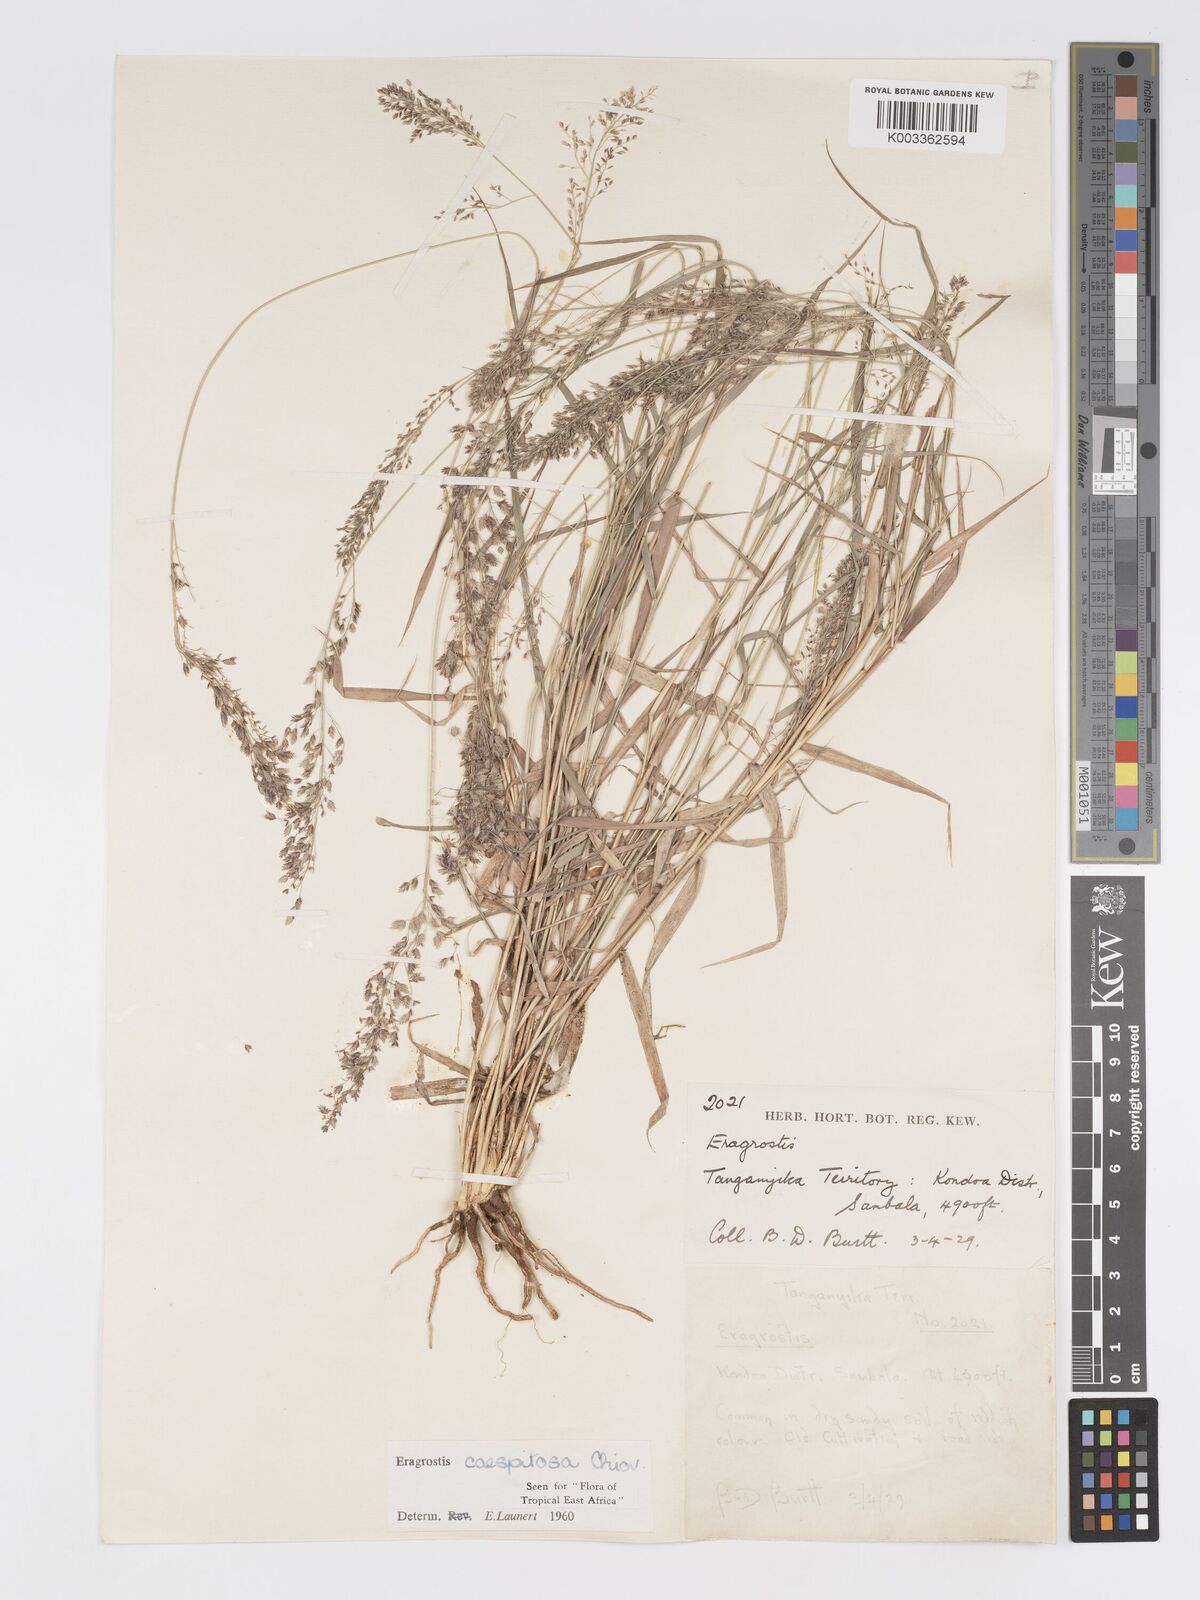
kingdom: Plantae
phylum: Tracheophyta
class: Liliopsida
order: Poales
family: Poaceae
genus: Eragrostis
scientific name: Eragrostis caespitosa
